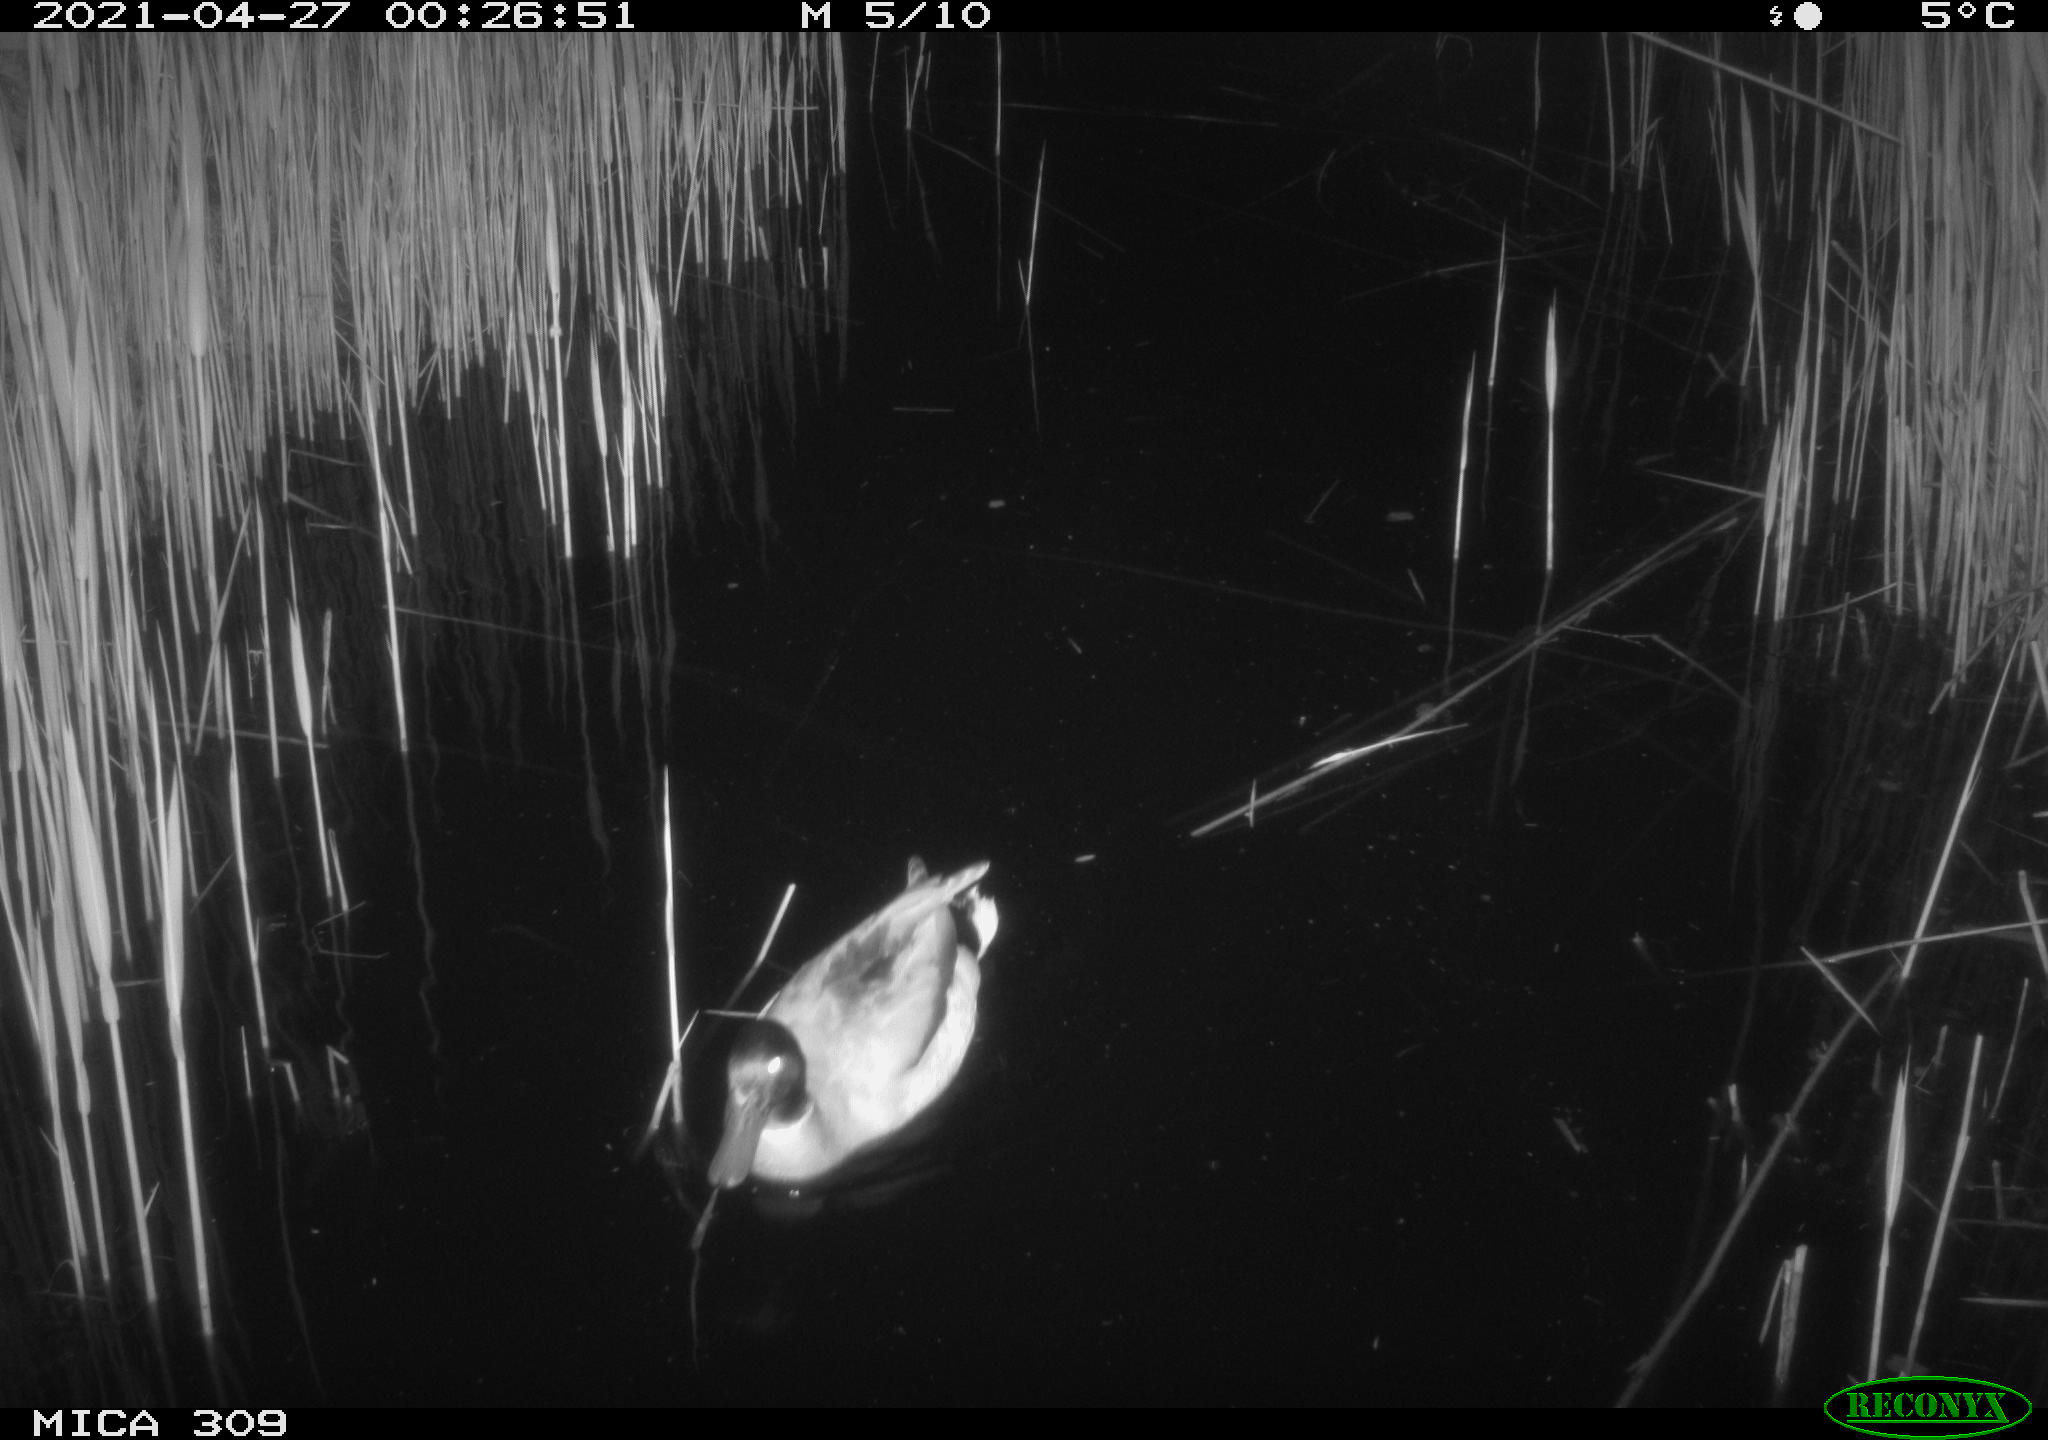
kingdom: Animalia
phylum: Chordata
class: Aves
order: Anseriformes
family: Anatidae
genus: Anas
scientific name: Anas platyrhynchos
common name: Mallard
